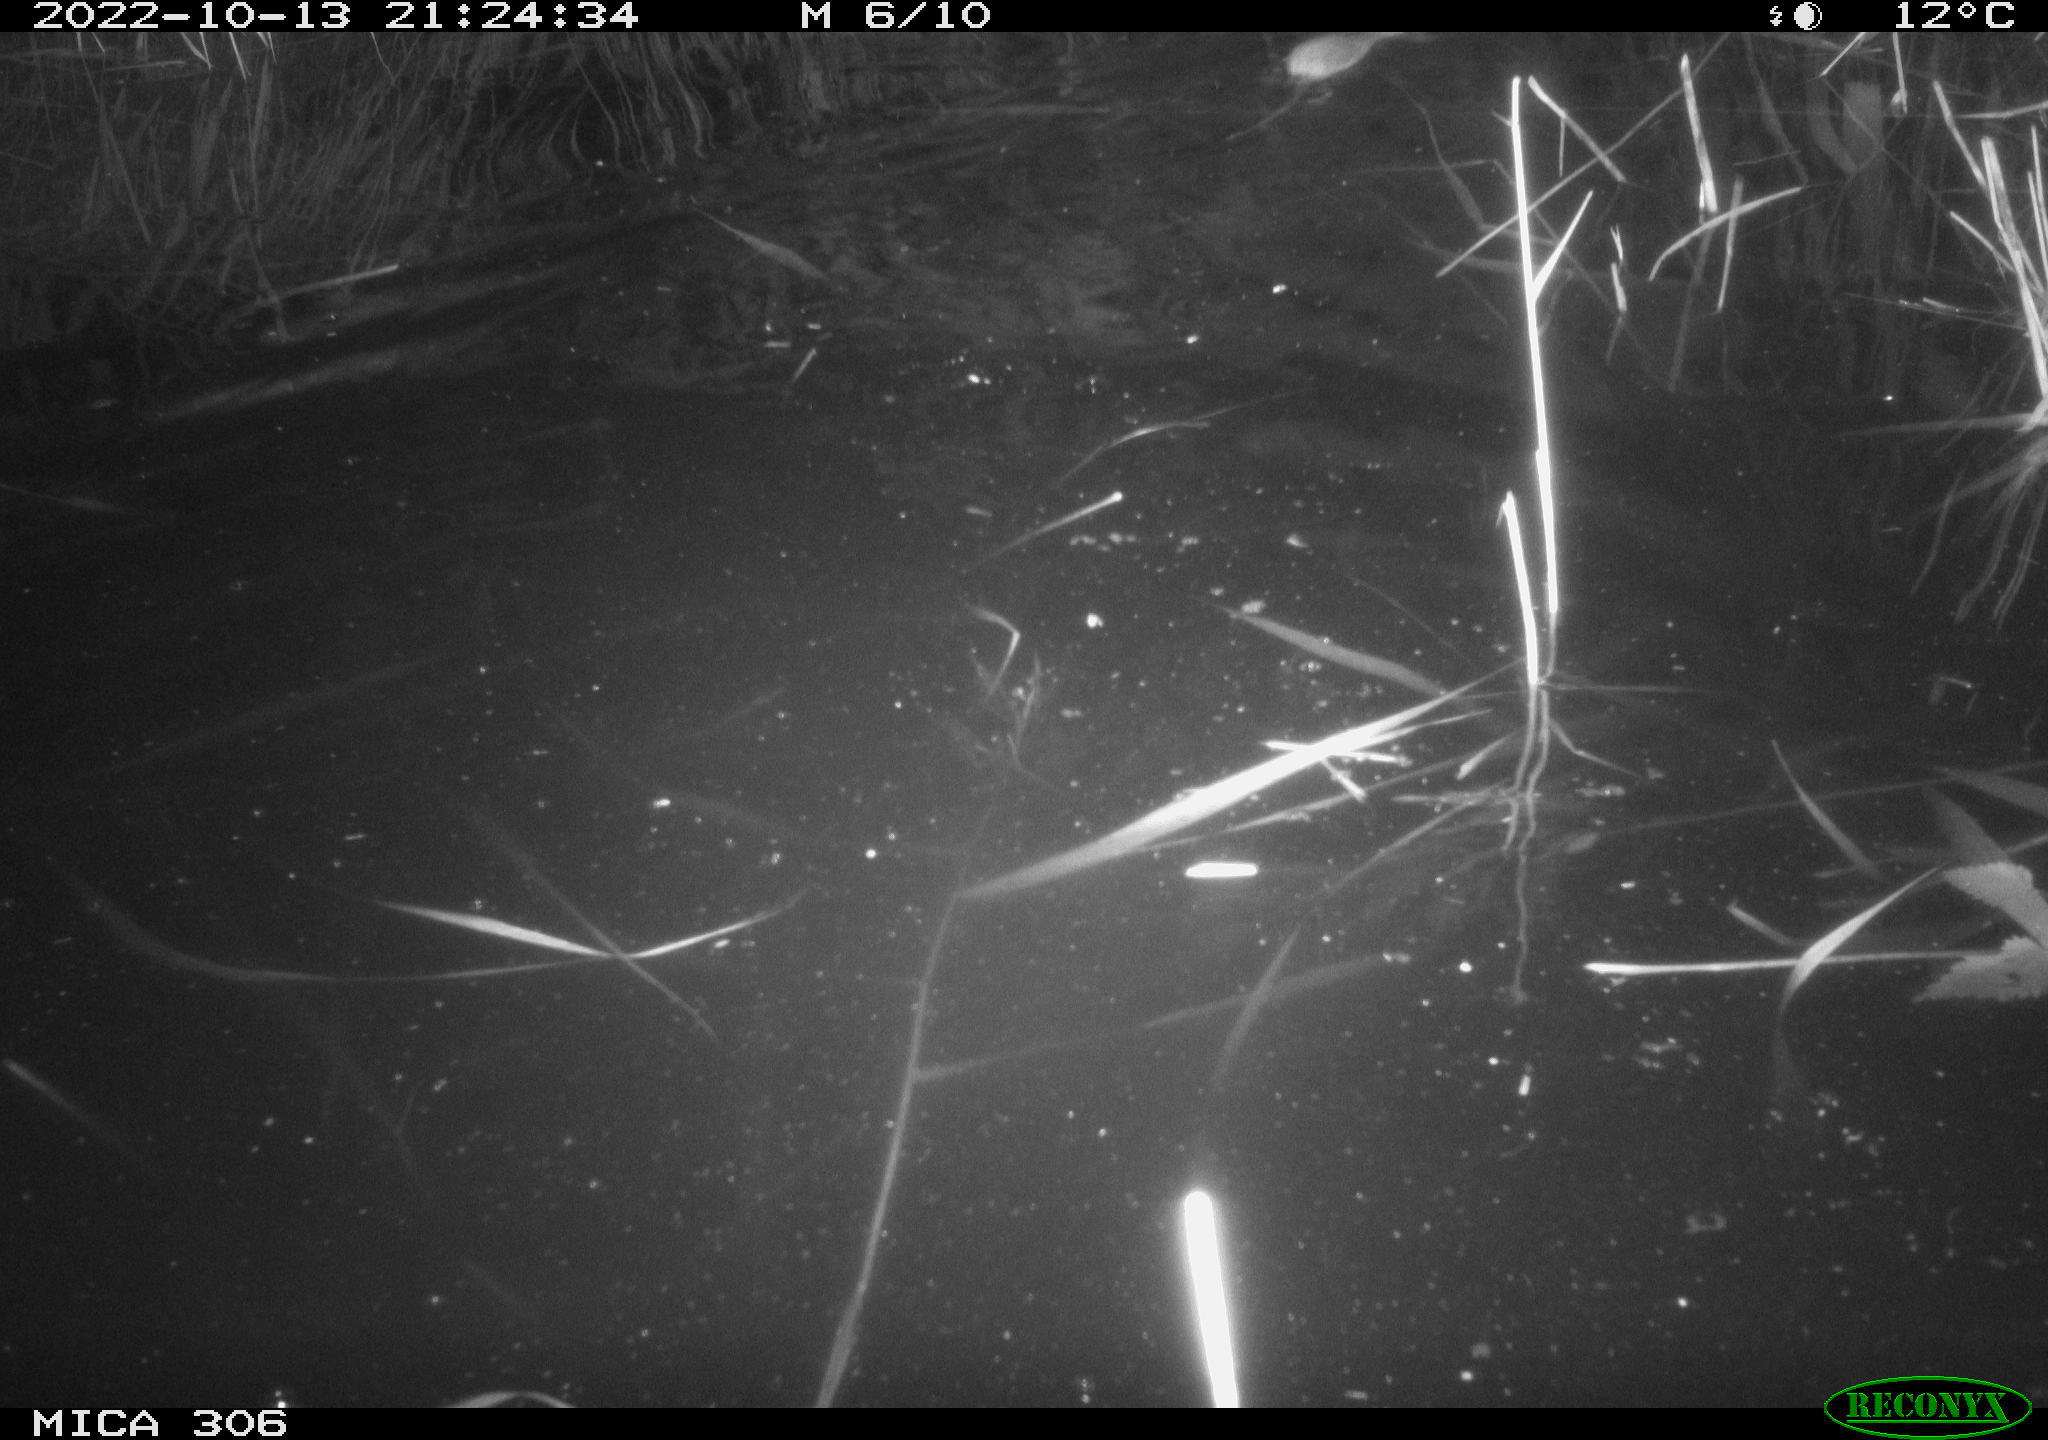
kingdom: Animalia
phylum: Chordata
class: Mammalia
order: Rodentia
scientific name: Rodentia
